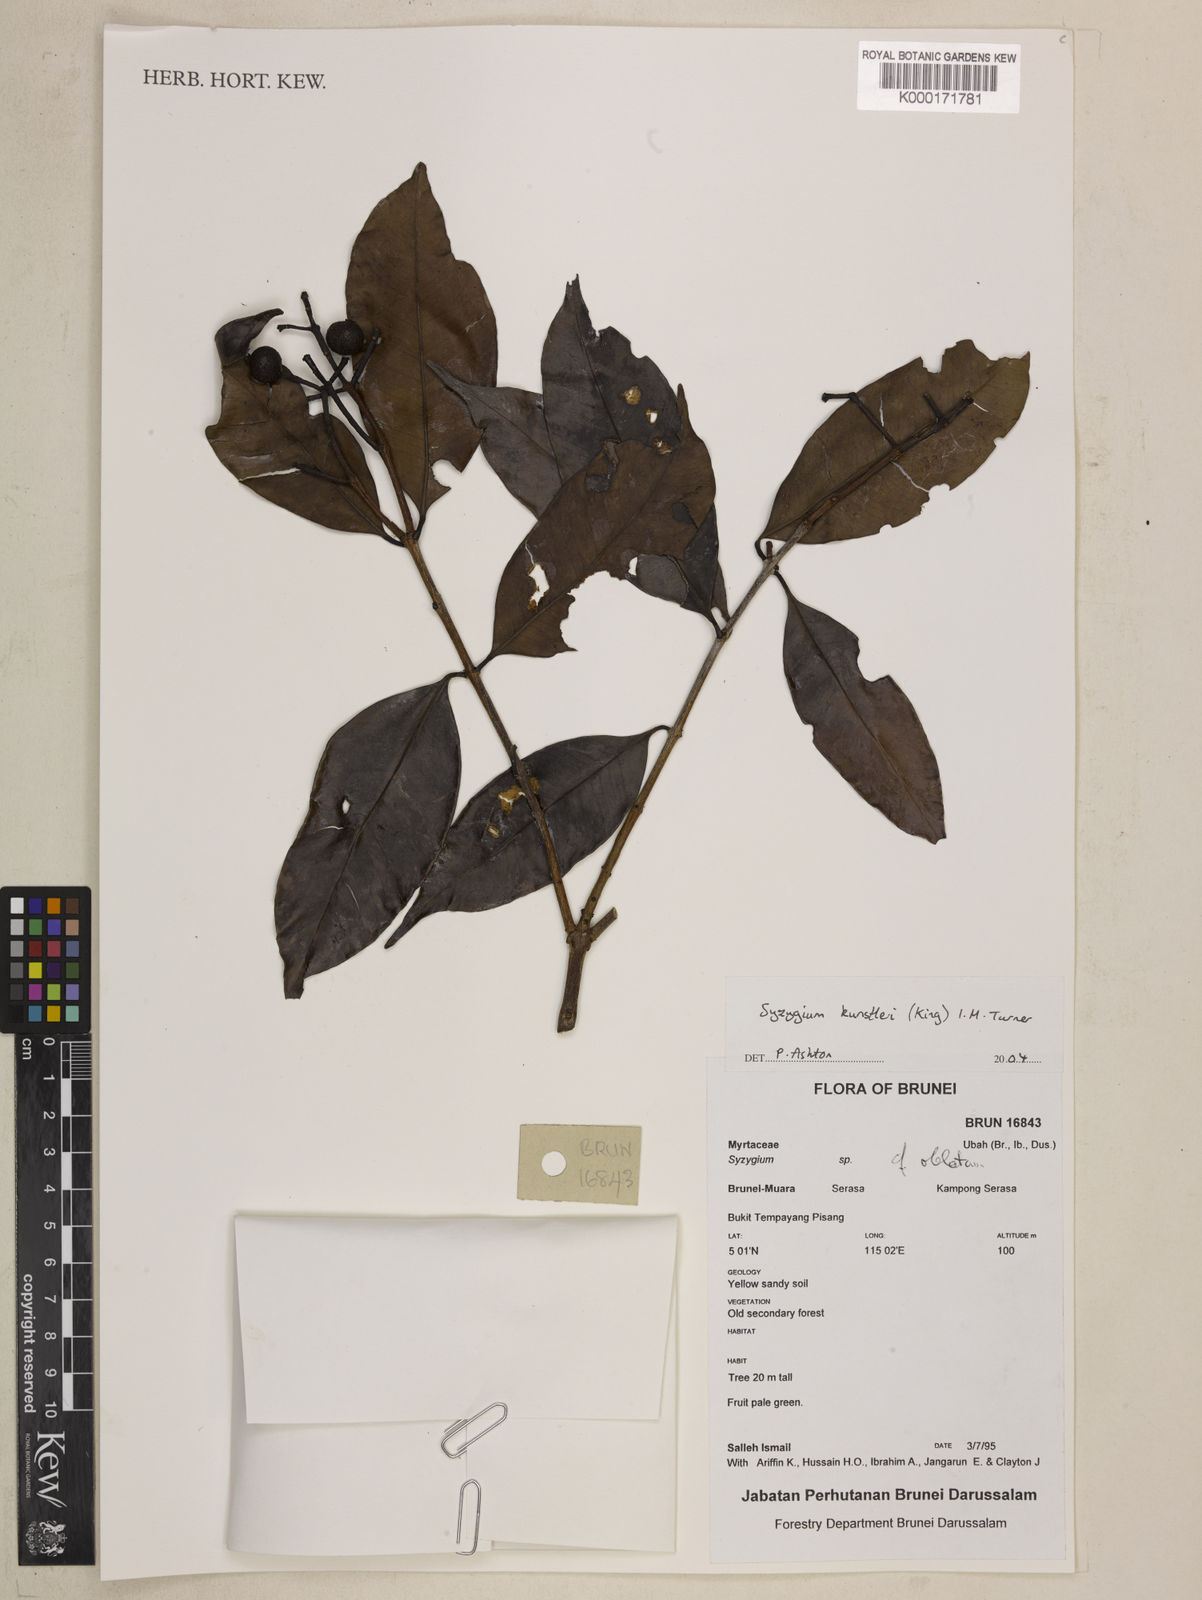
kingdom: Plantae
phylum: Tracheophyta
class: Magnoliopsida
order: Myrtales
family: Myrtaceae
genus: Syzygium
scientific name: Syzygium
